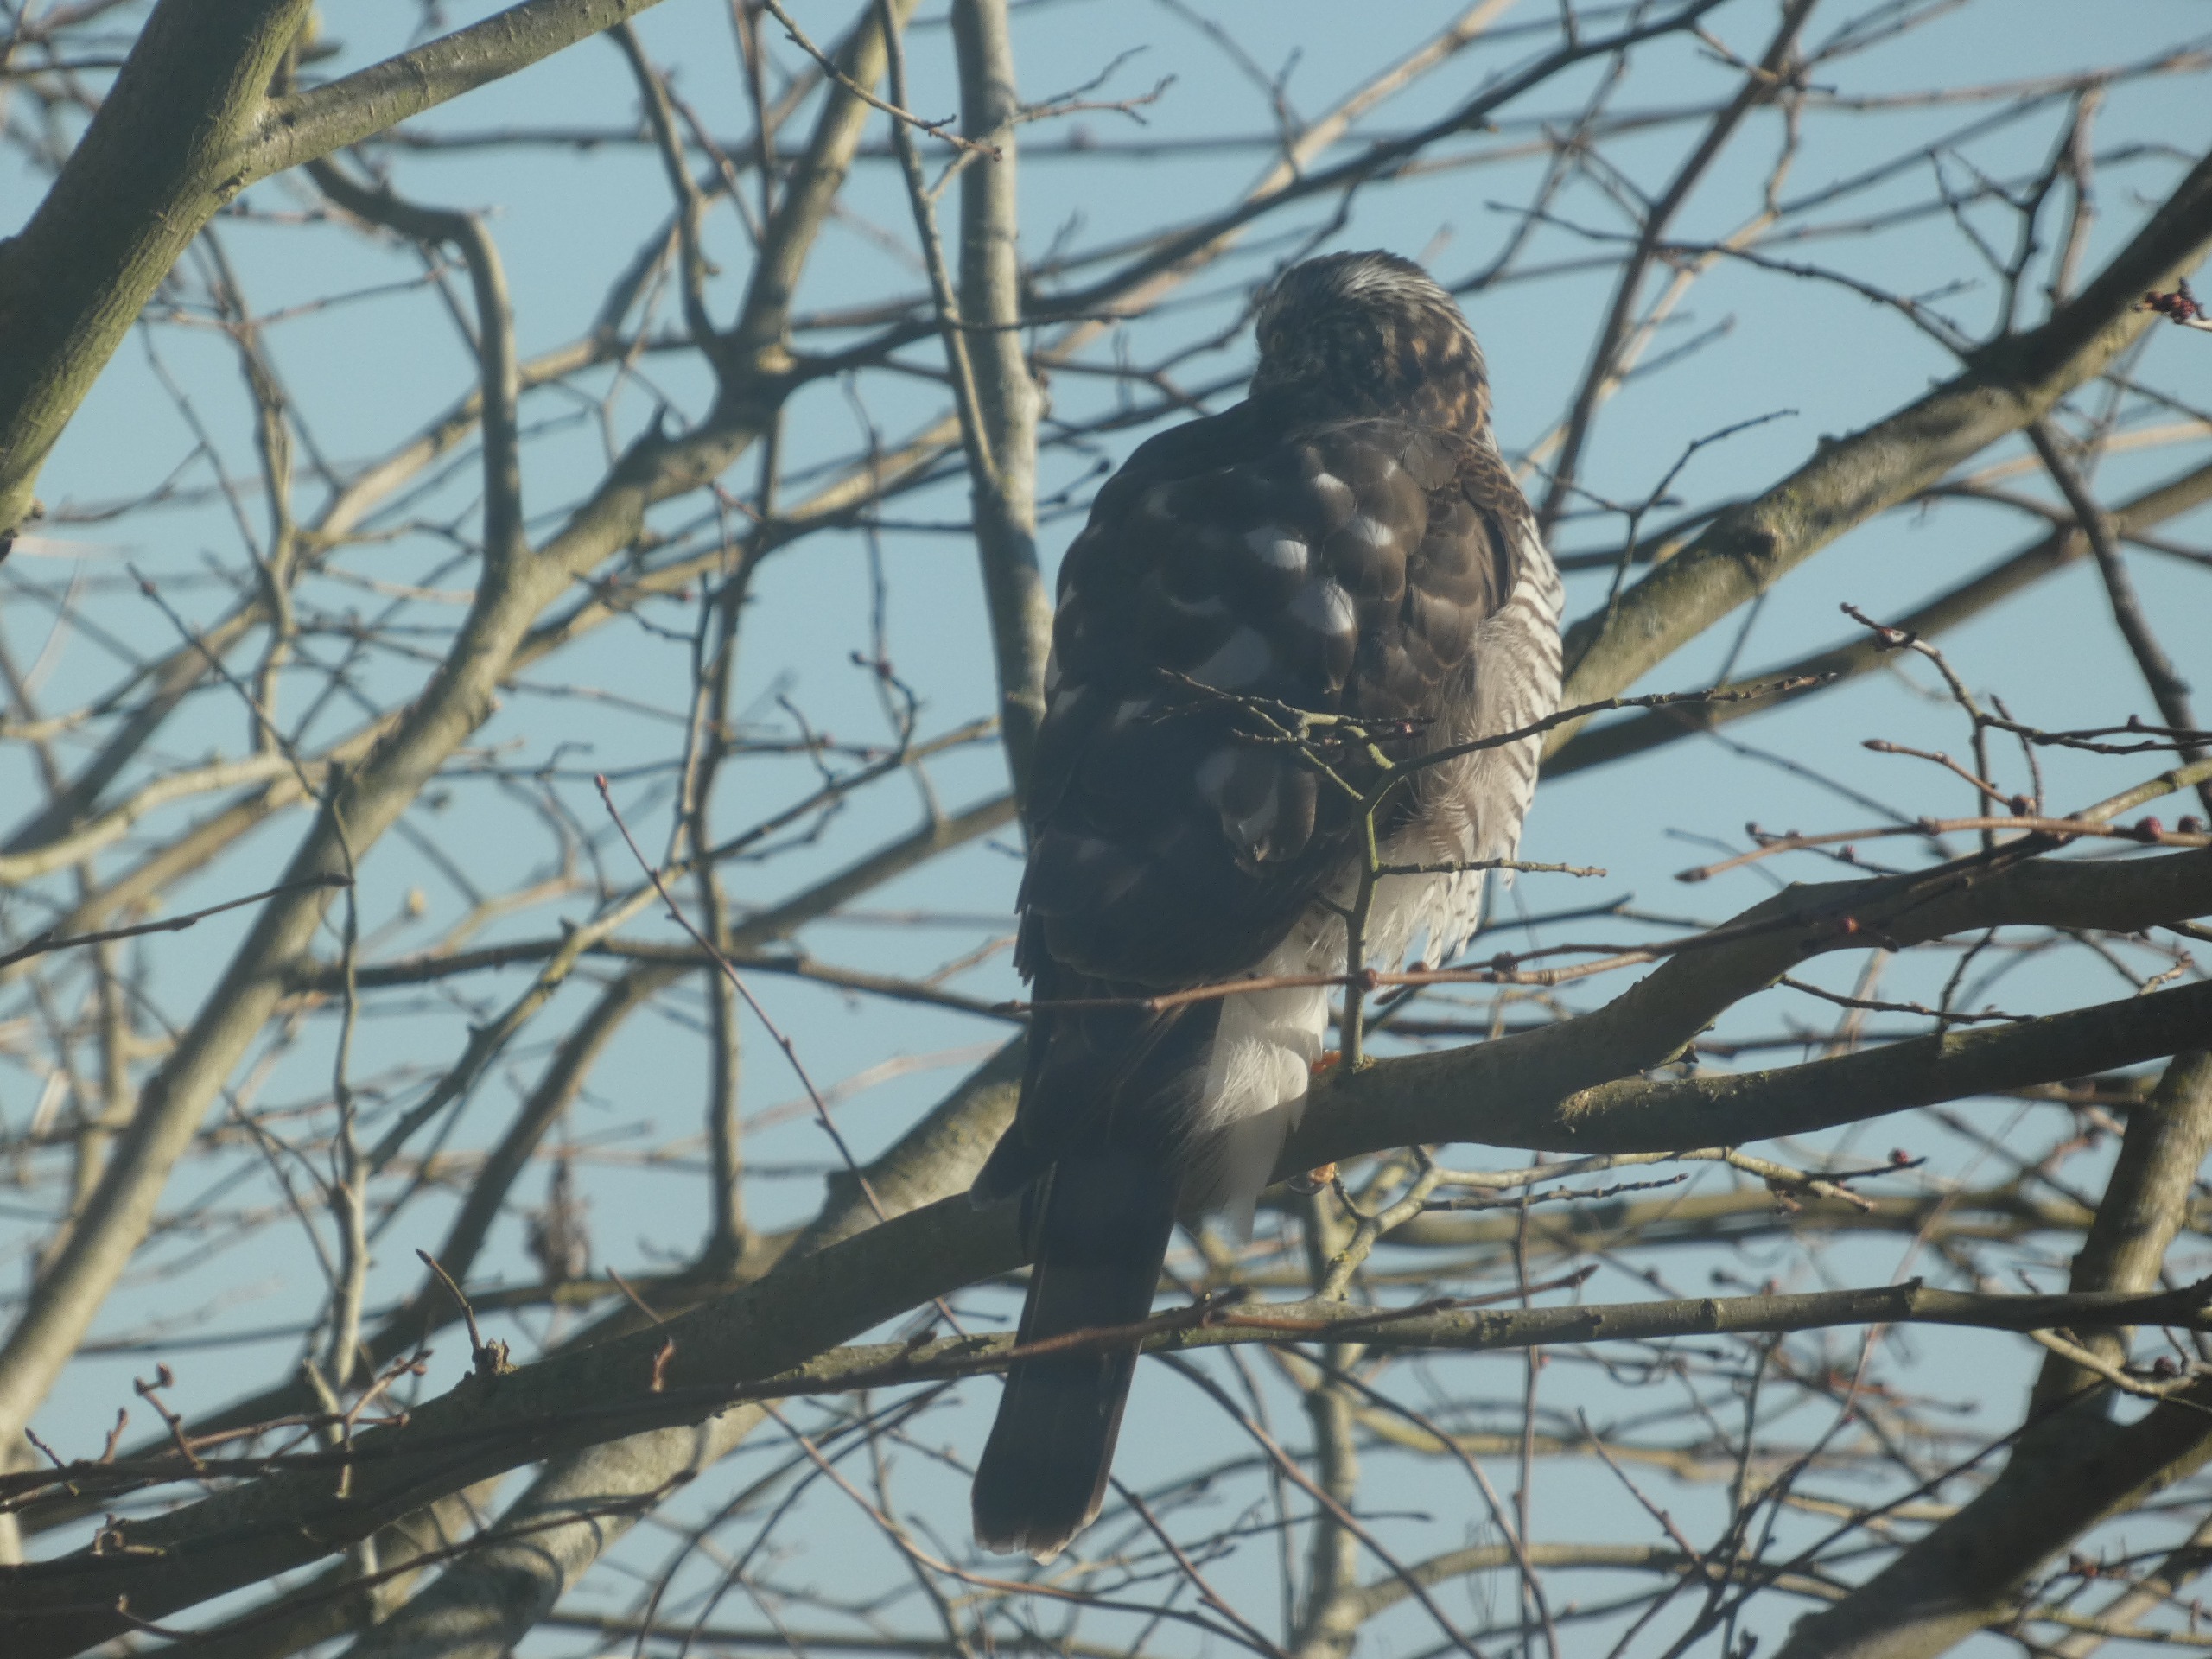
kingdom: Animalia
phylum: Chordata
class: Aves
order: Accipitriformes
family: Accipitridae
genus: Accipiter
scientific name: Accipiter nisus
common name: Spurvehøg
